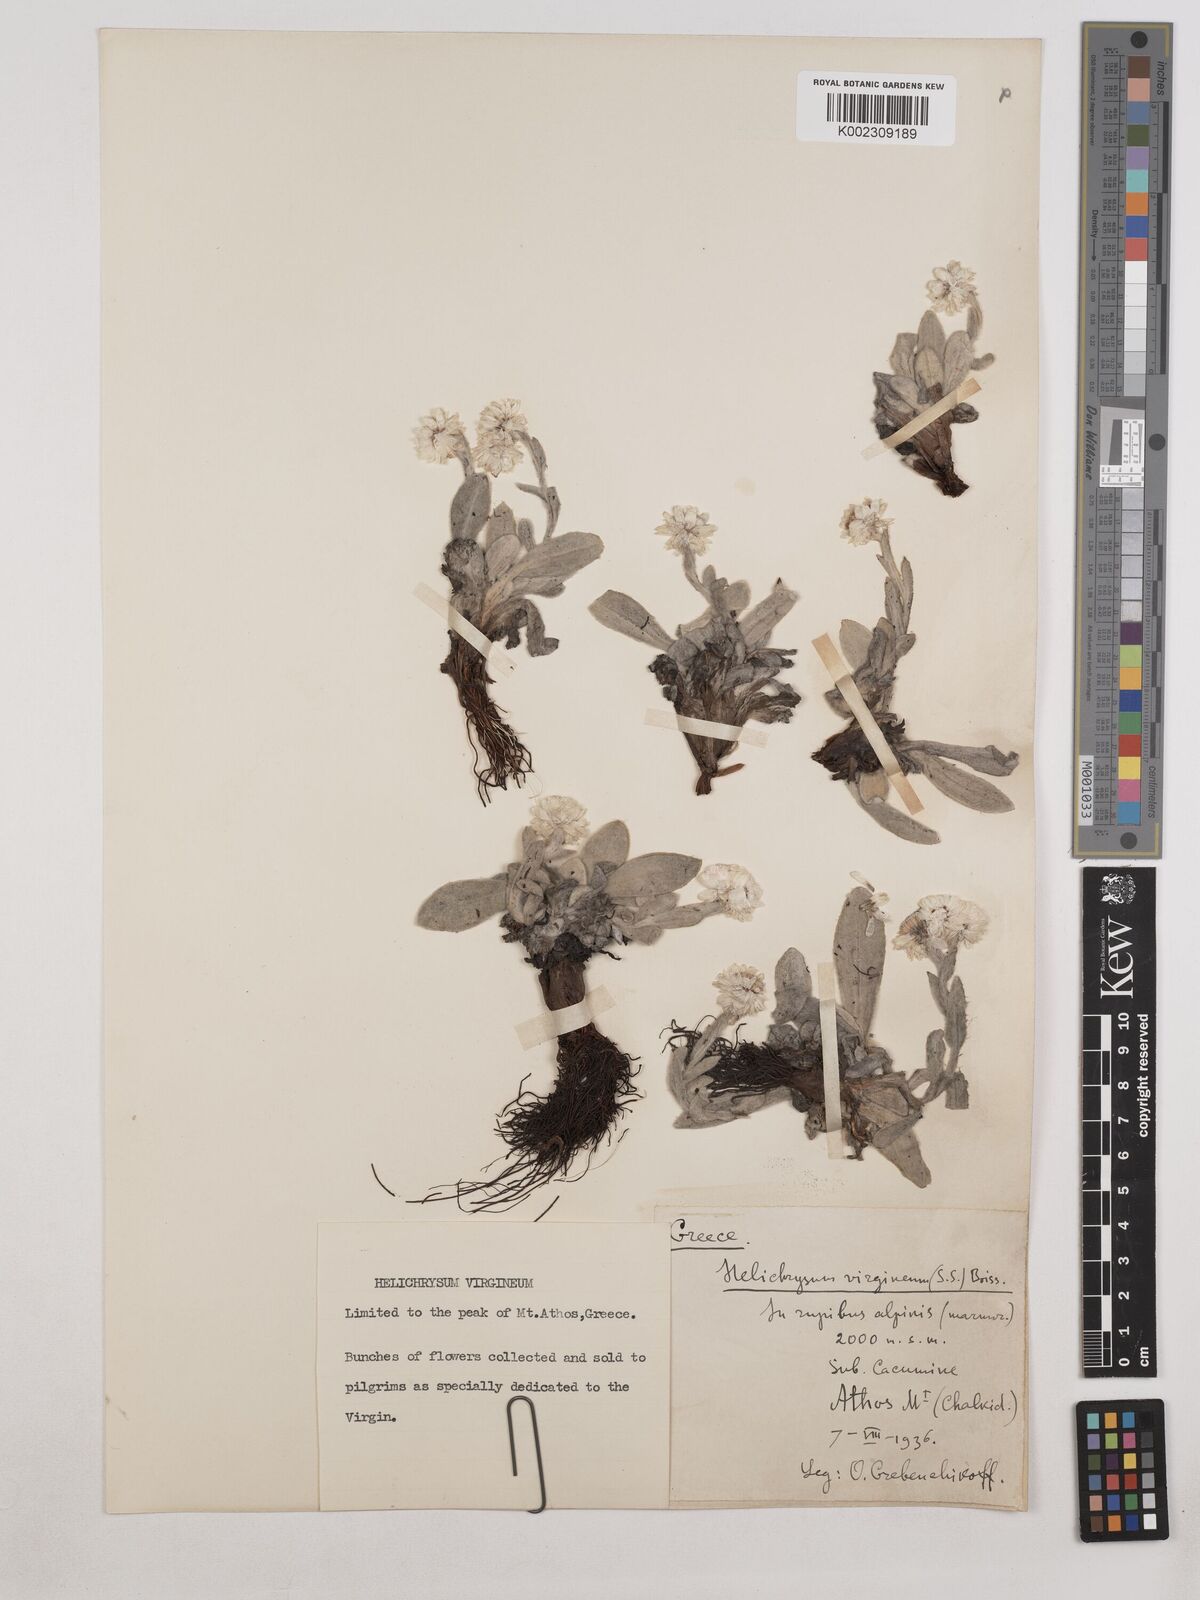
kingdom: Plantae
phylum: Tracheophyta
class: Magnoliopsida
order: Asterales
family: Asteraceae
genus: Helichrysum
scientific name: Helichrysum sibthorpii
